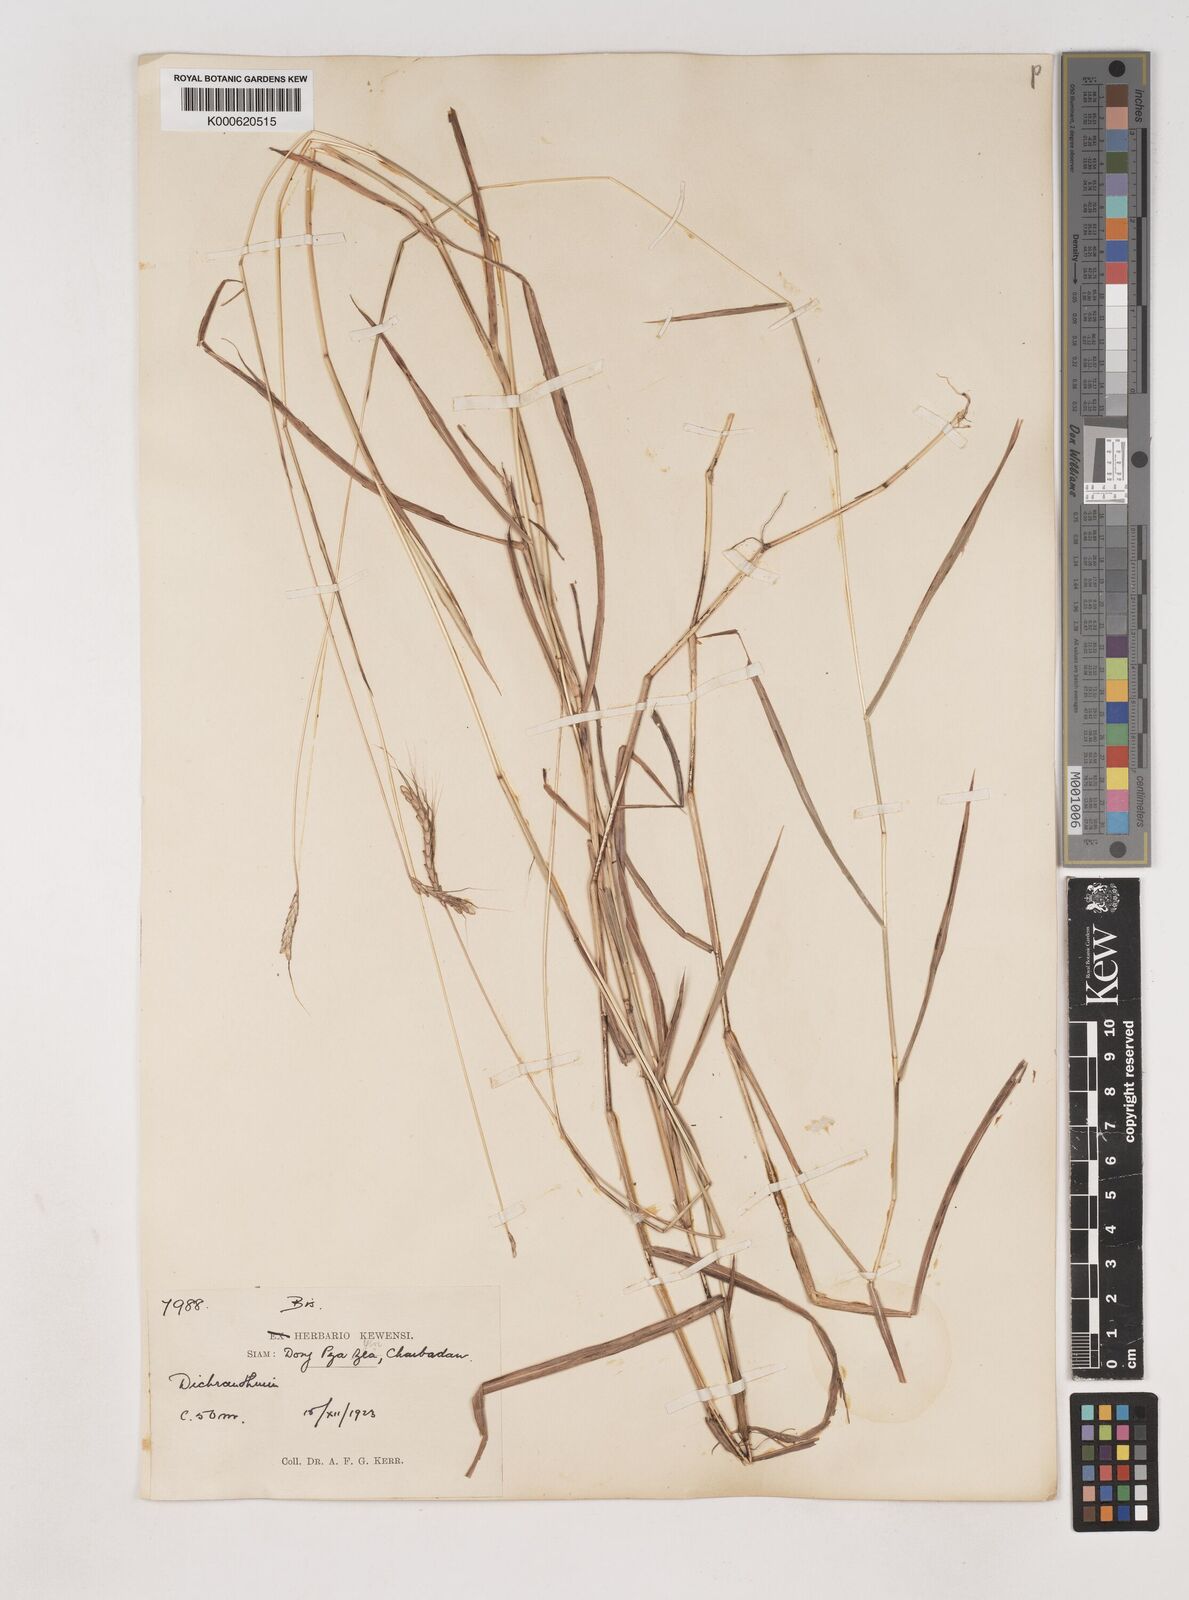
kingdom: Plantae
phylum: Tracheophyta
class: Liliopsida
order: Poales
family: Poaceae
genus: Dichanthium
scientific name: Dichanthium caricosum
